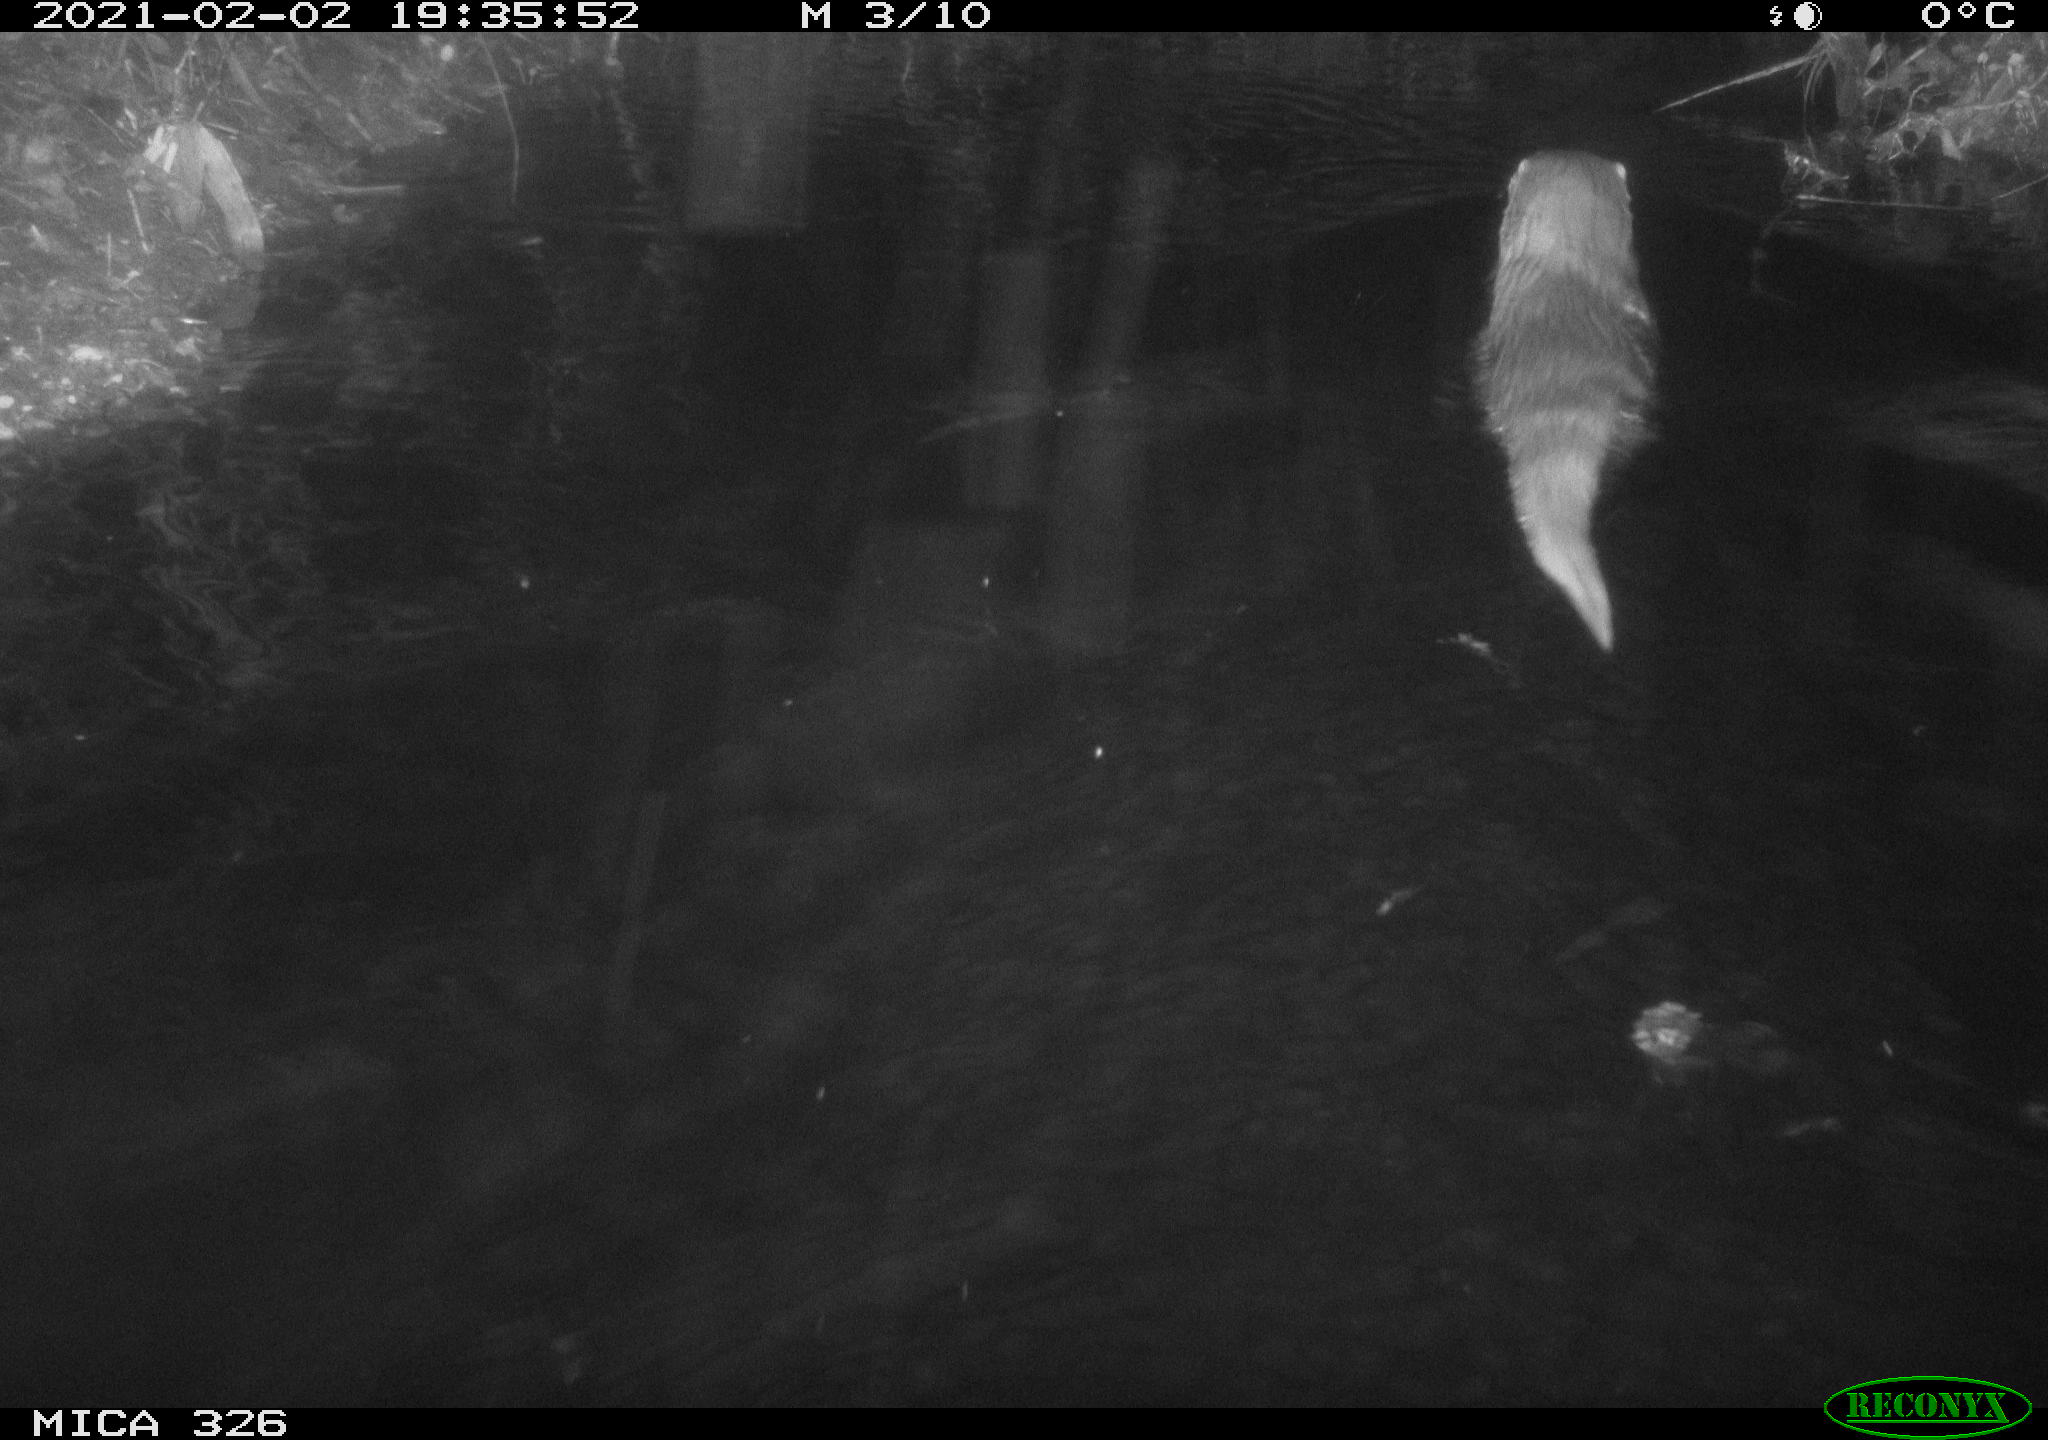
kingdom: Animalia
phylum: Chordata
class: Mammalia
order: Carnivora
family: Mustelidae
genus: Lutra
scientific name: Lutra lutra
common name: European otter
